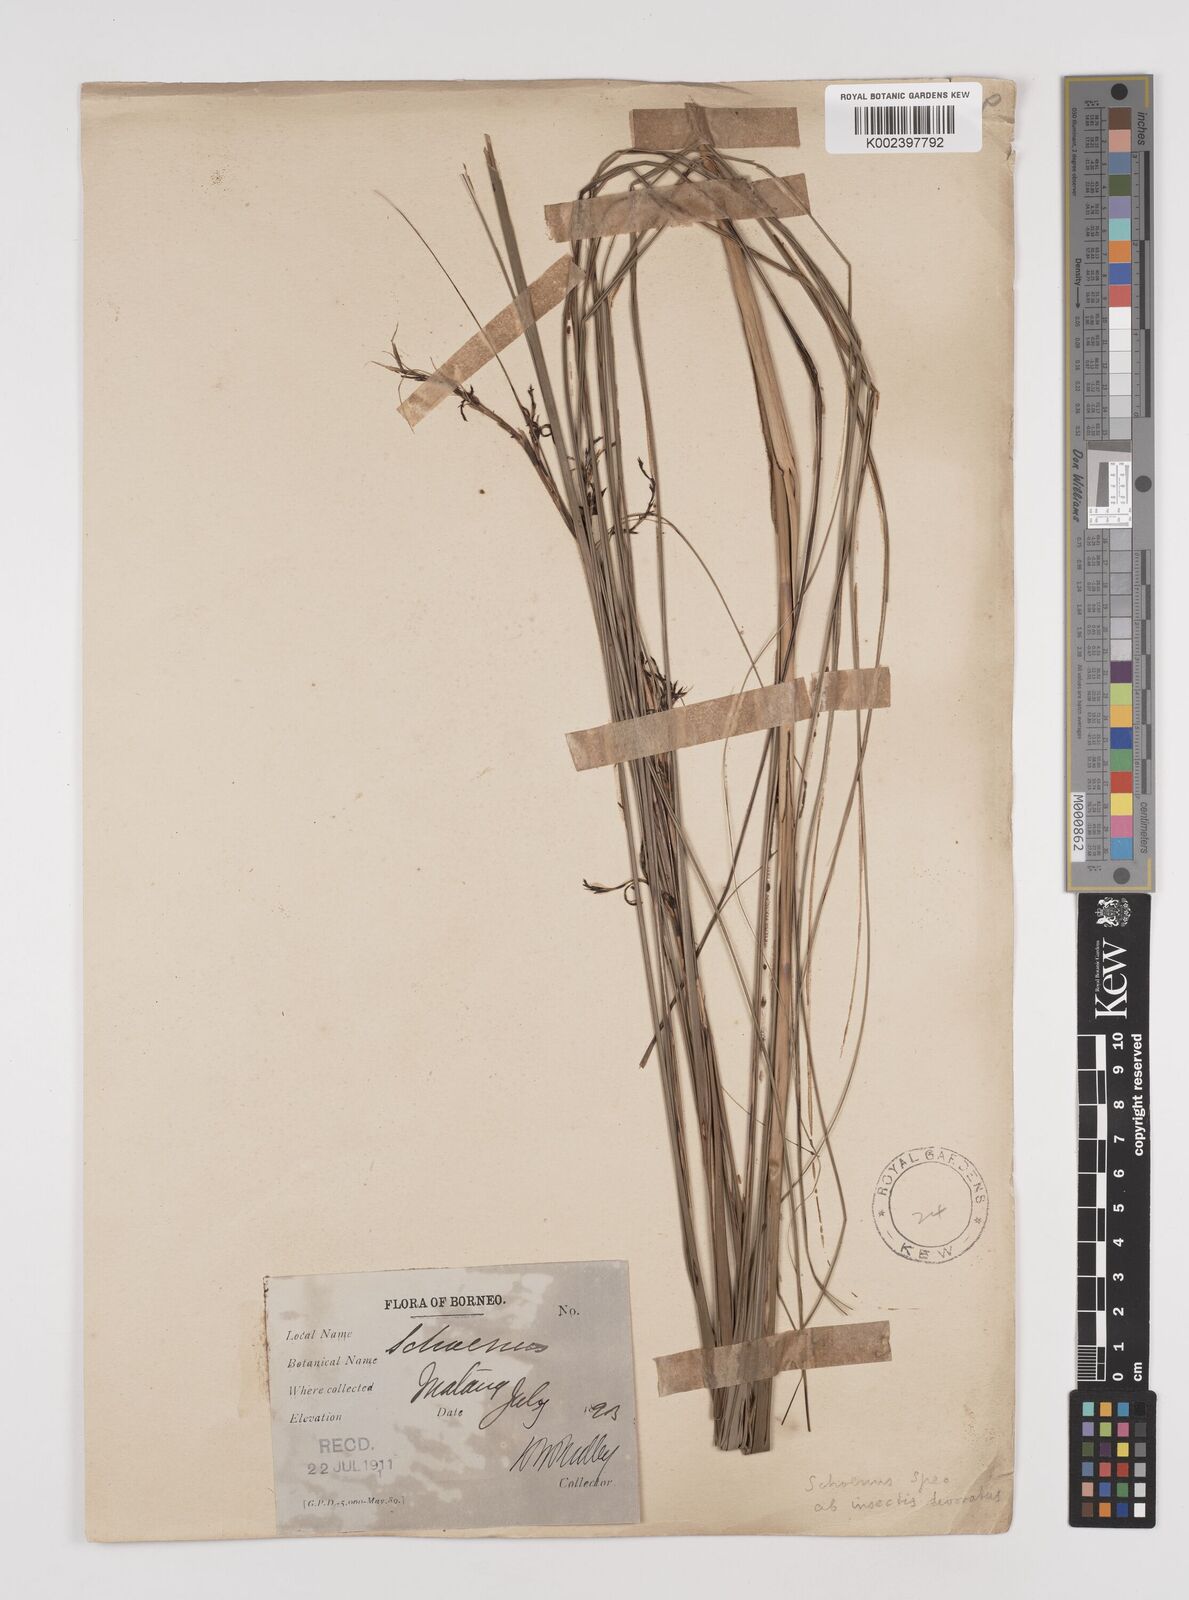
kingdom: Plantae
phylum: Tracheophyta
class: Liliopsida
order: Poales
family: Cyperaceae
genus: Schoenus
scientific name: Schoenus
